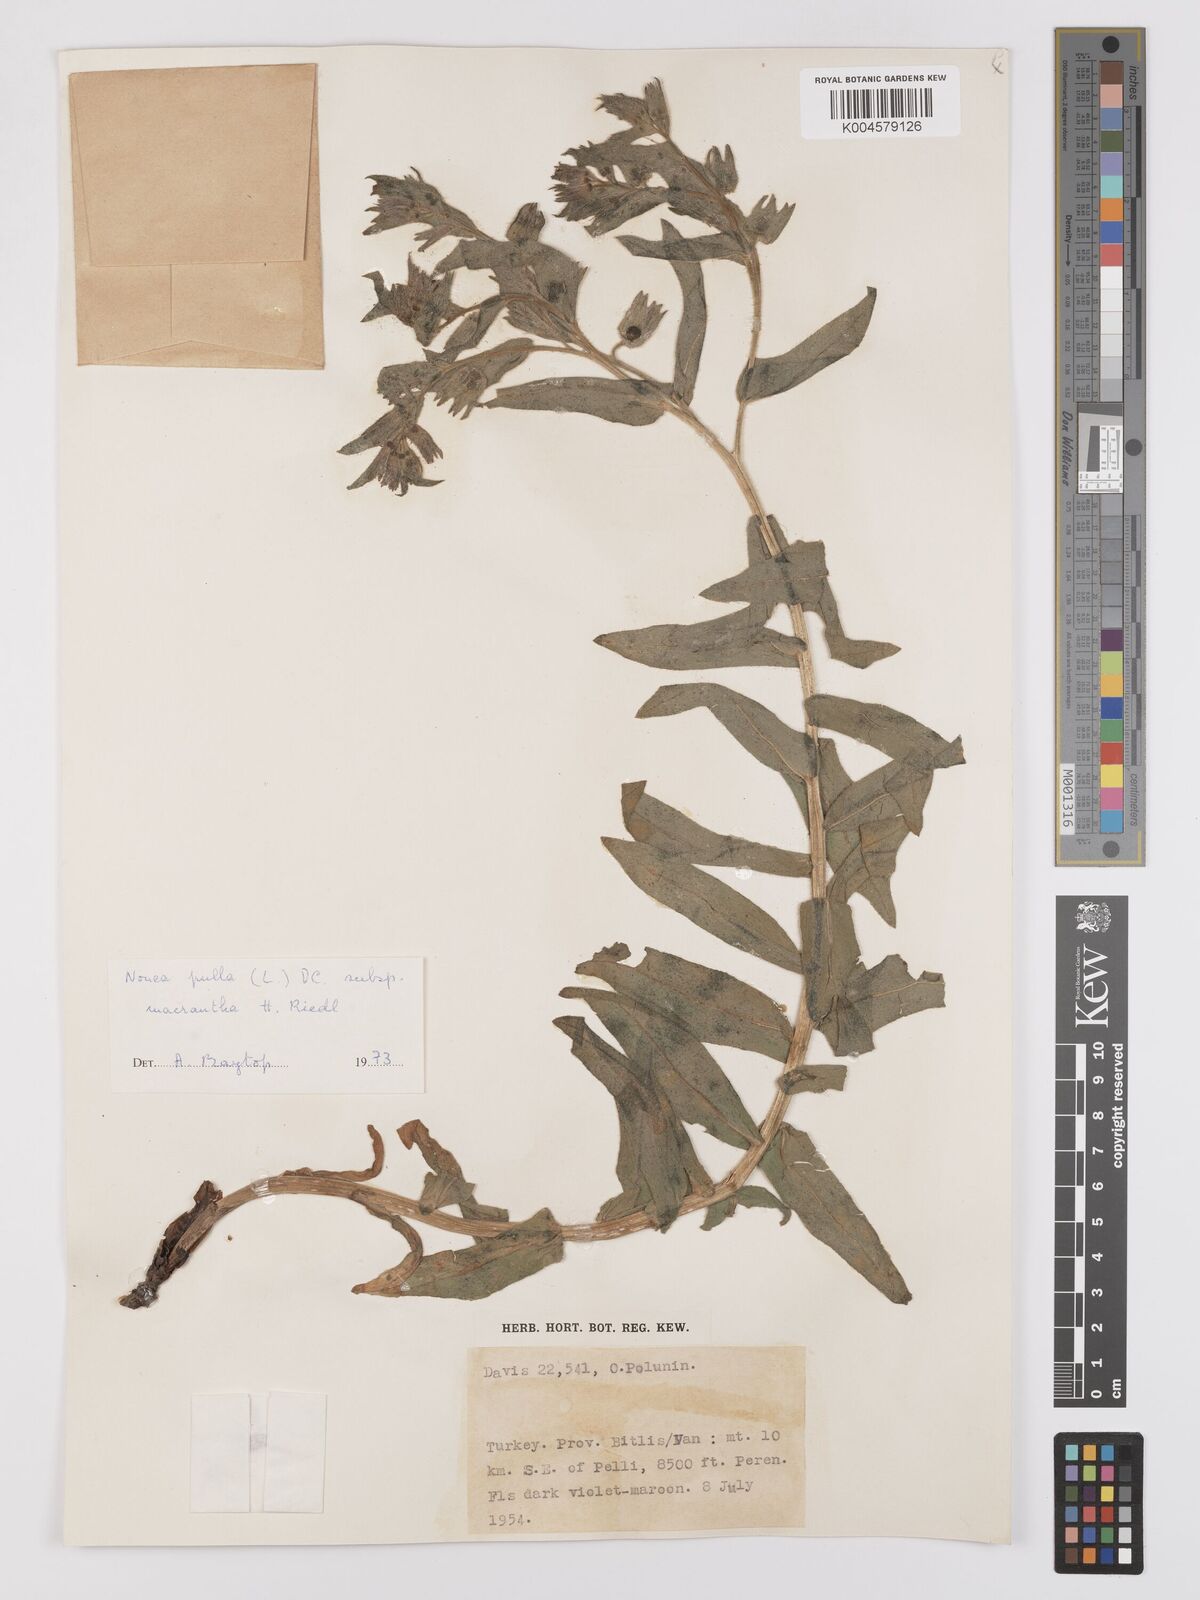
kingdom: Plantae
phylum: Tracheophyta
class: Magnoliopsida
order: Boraginales
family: Boraginaceae
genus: Nonea
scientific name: Nonea pulla
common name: Brown nonea
